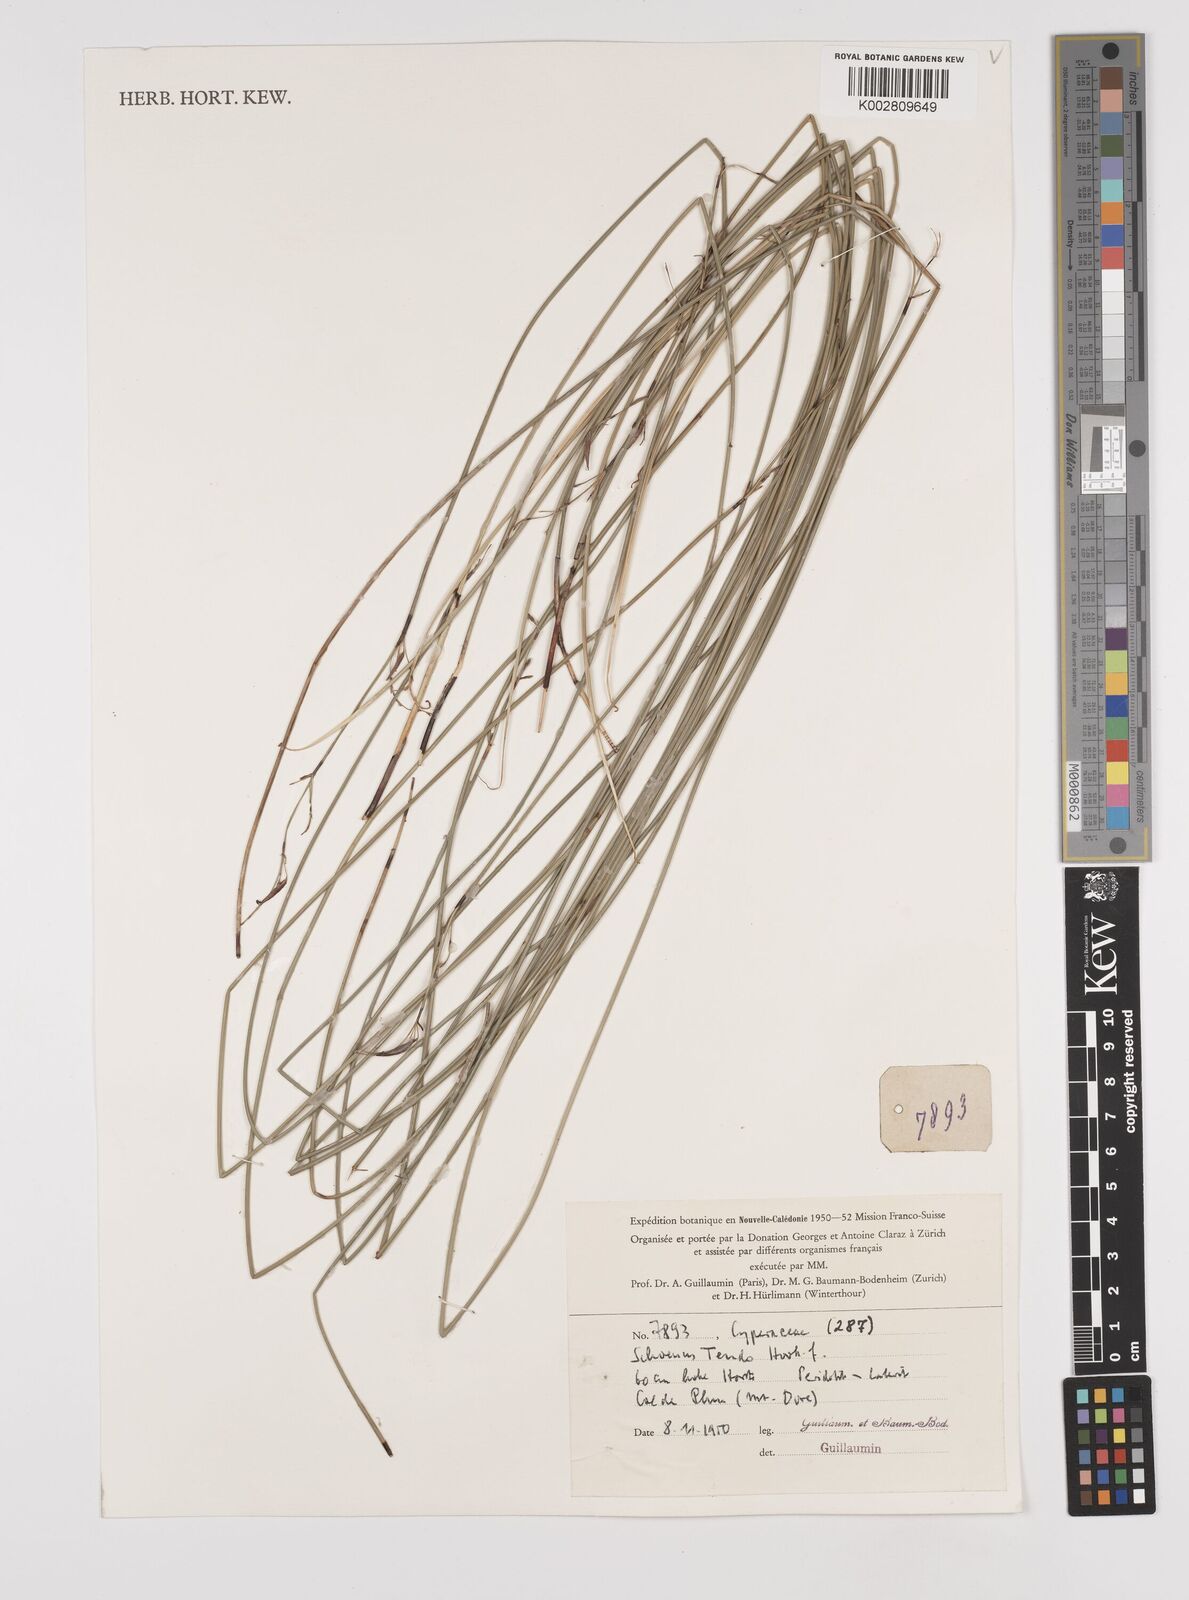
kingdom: Plantae
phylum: Tracheophyta
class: Liliopsida
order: Poales
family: Cyperaceae
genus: Schoenus
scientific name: Schoenus tendo
